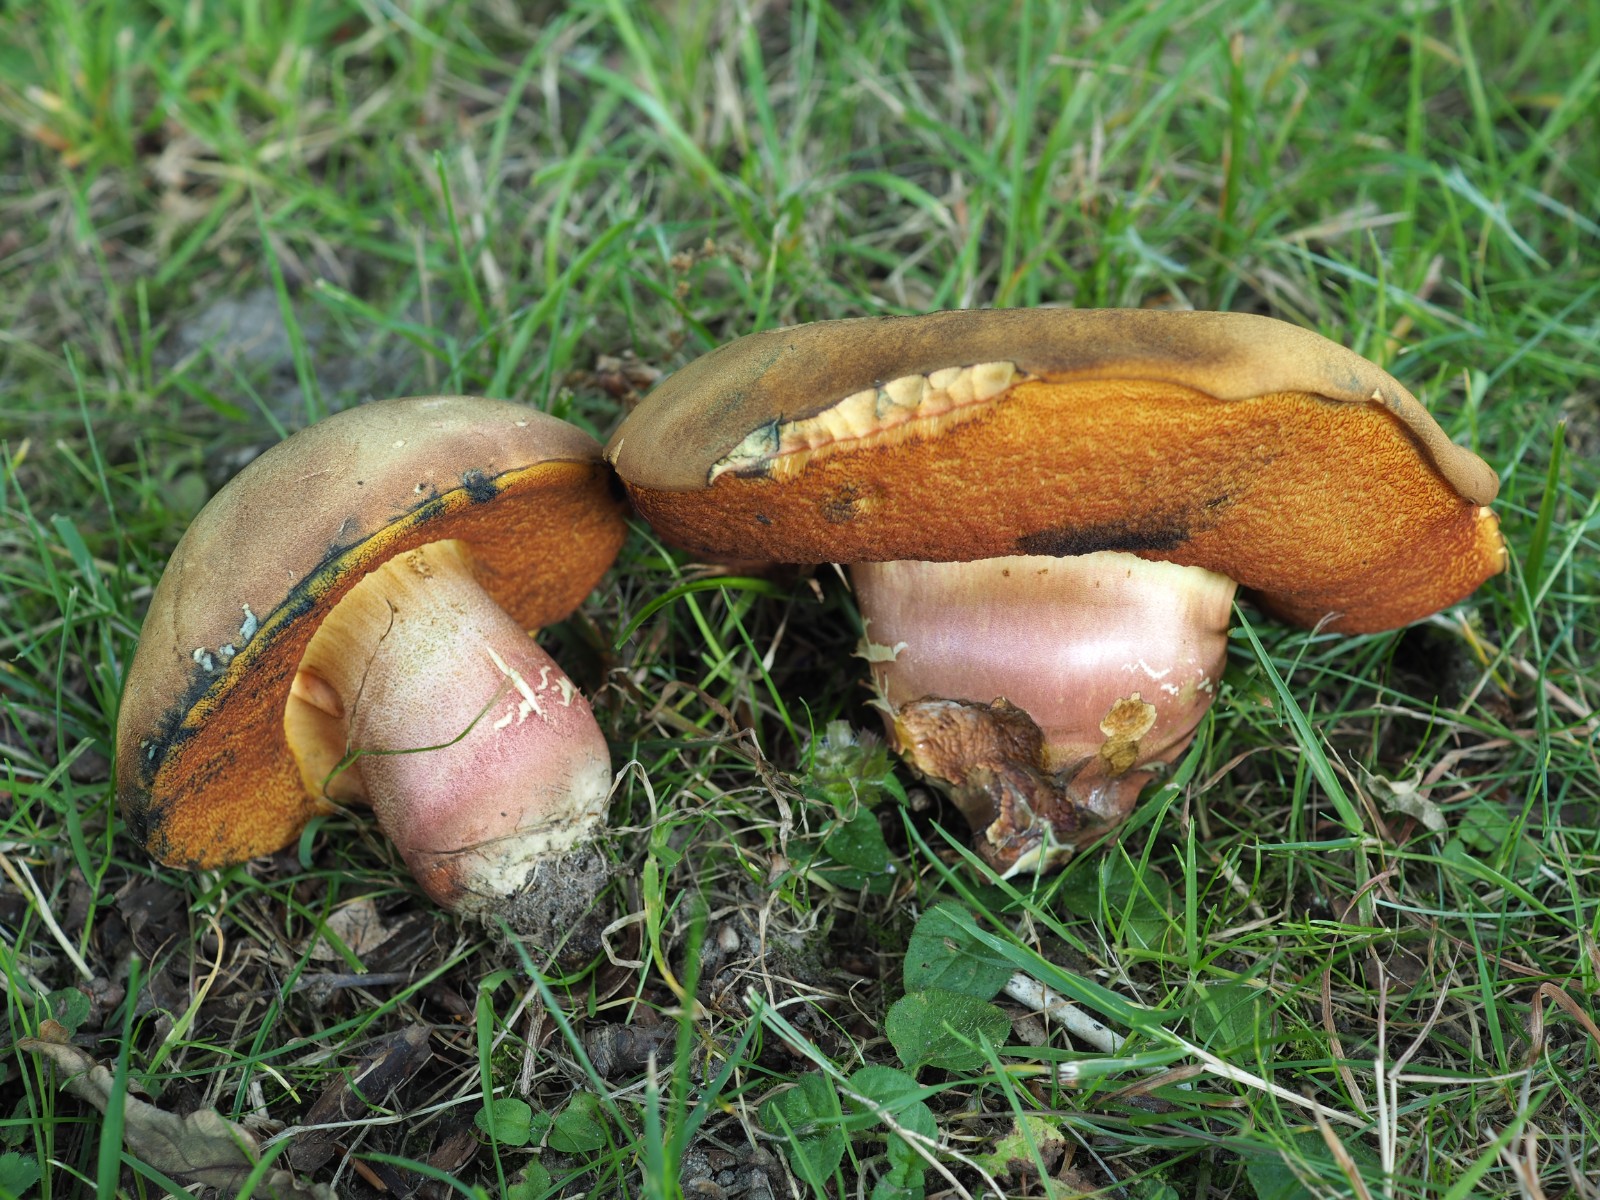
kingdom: Fungi
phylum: Basidiomycota
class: Agaricomycetes
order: Boletales
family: Boletaceae
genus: Neoboletus
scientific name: Neoboletus xanthopus
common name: finprikket indigorørhat
